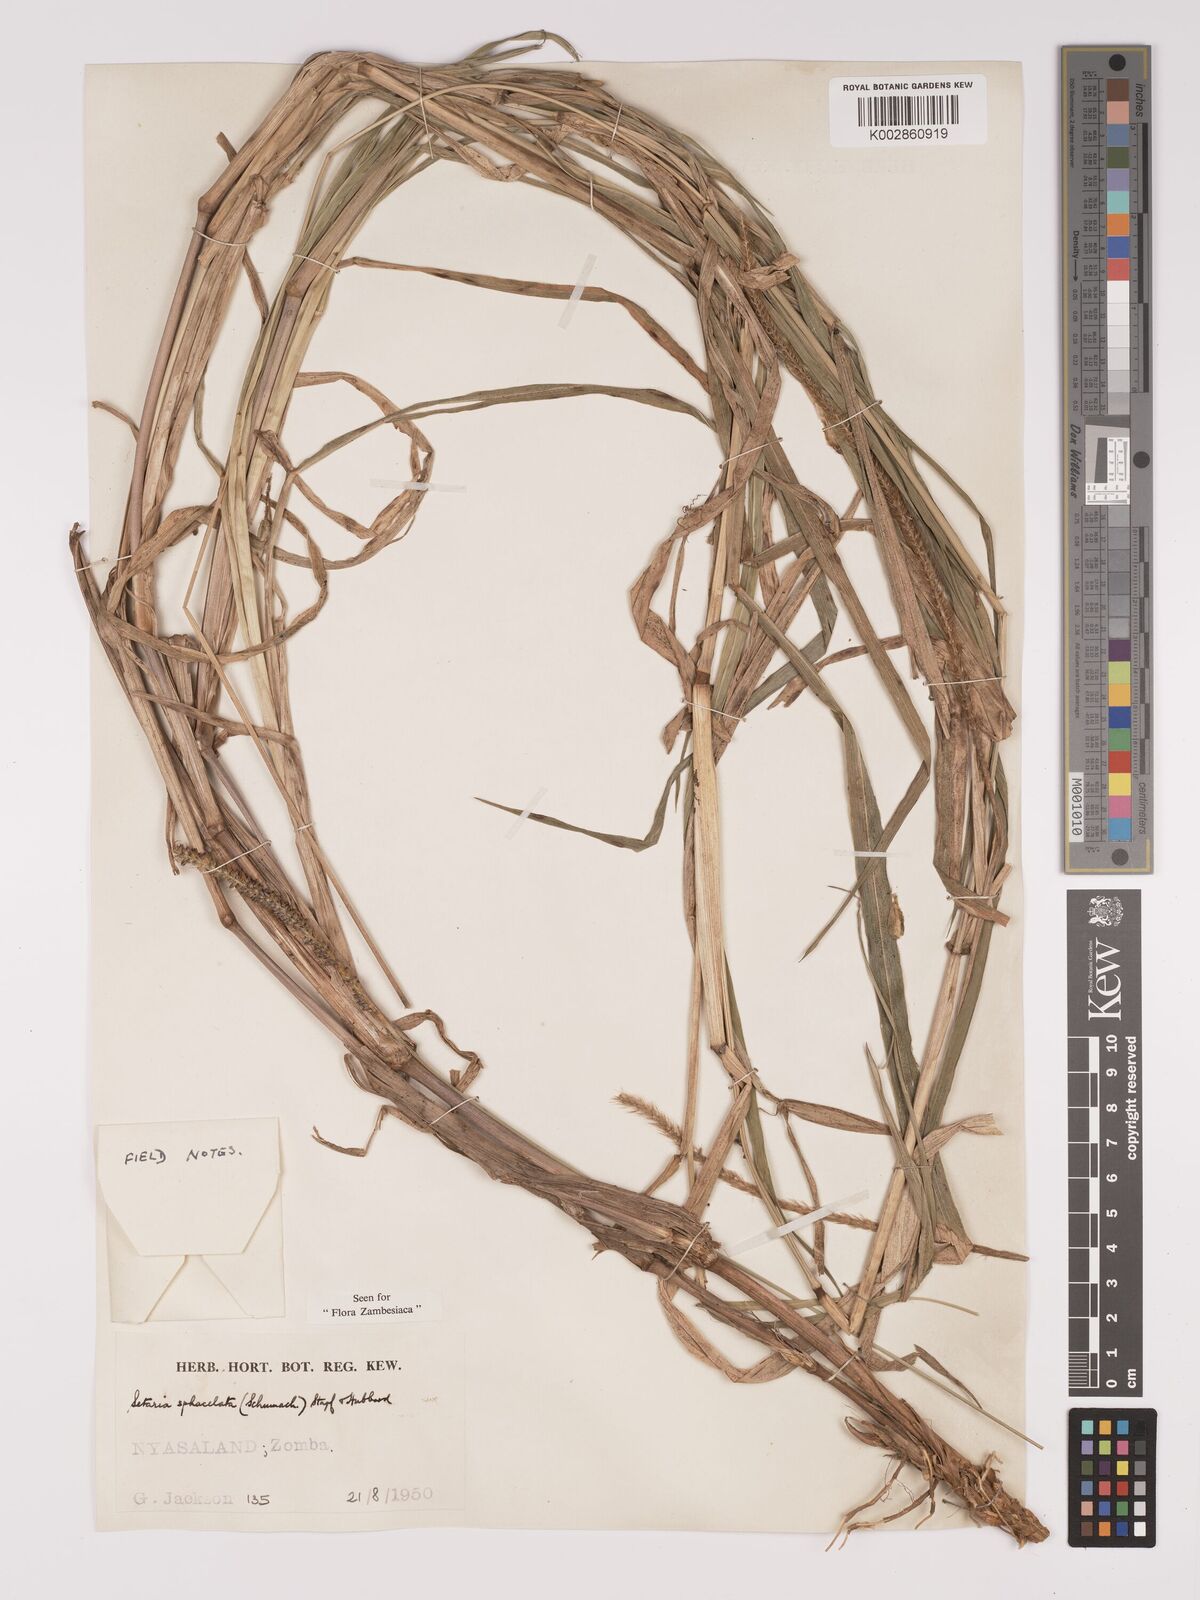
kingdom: Plantae
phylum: Tracheophyta
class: Liliopsida
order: Poales
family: Poaceae
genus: Setaria
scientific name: Setaria sphacelata
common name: African bristlegrass
